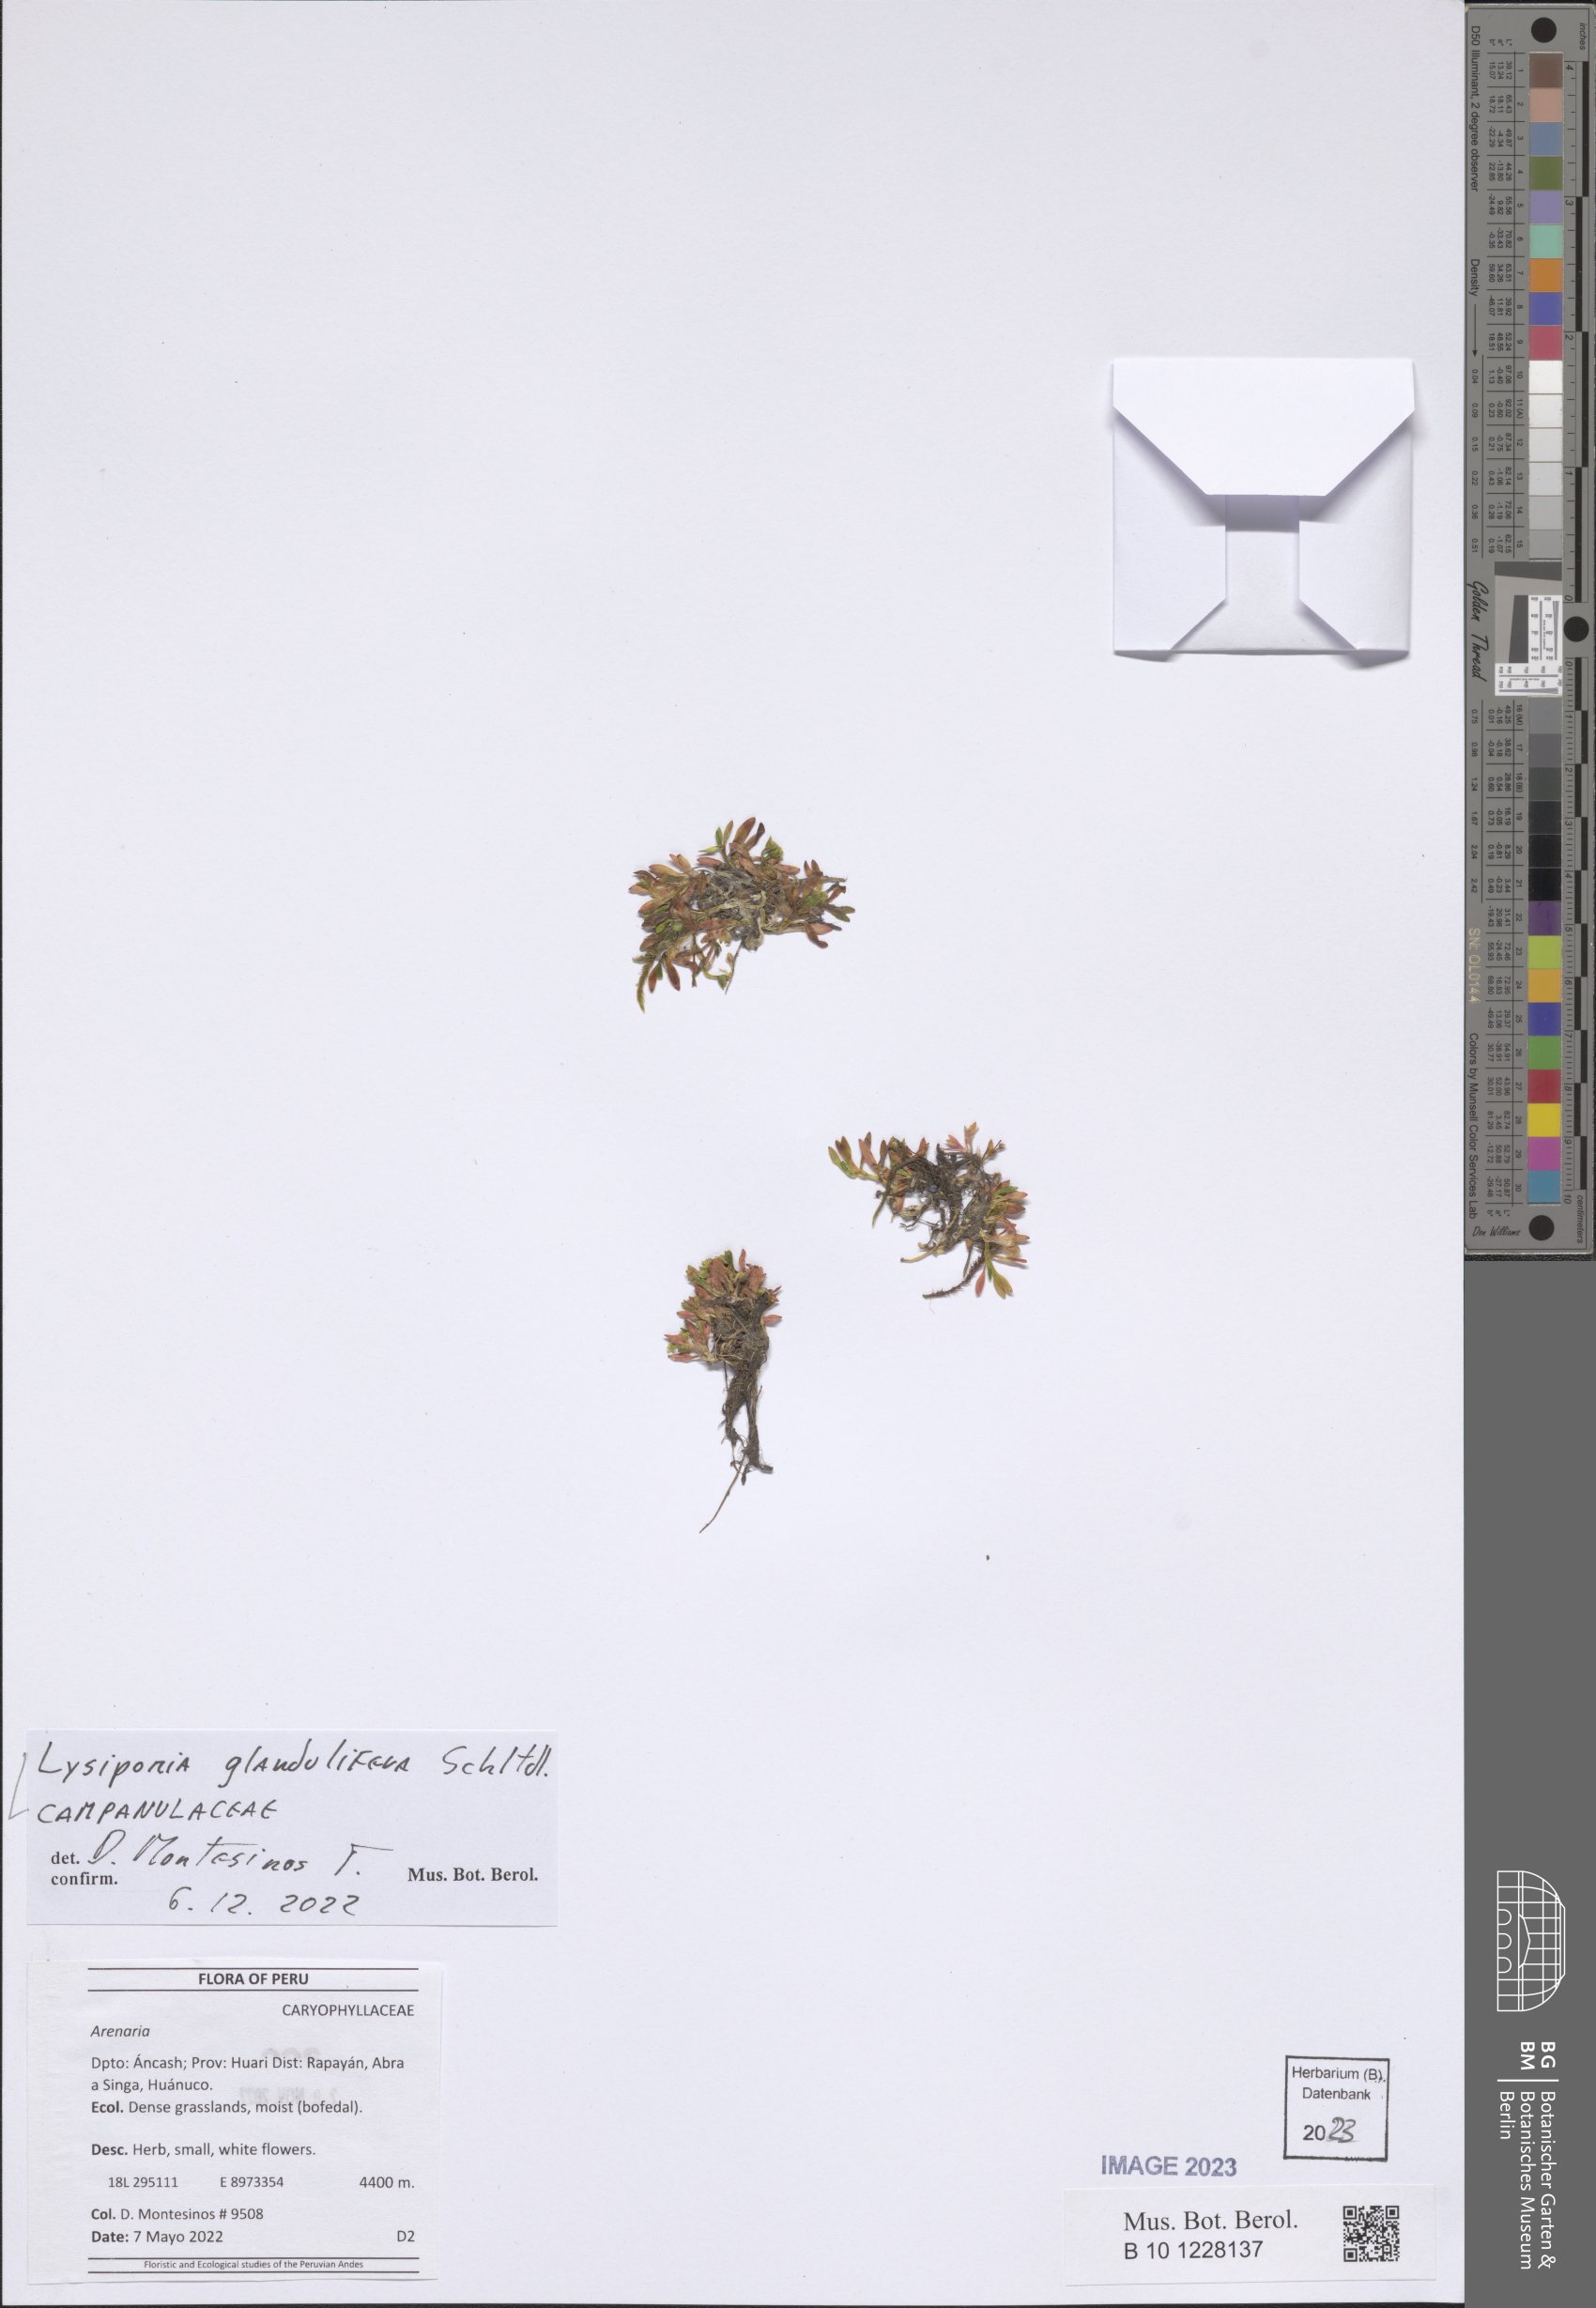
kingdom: Plantae
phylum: Tracheophyta
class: Magnoliopsida
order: Asterales
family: Campanulaceae
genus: Lysipomia
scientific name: Lysipomia glandulifera
